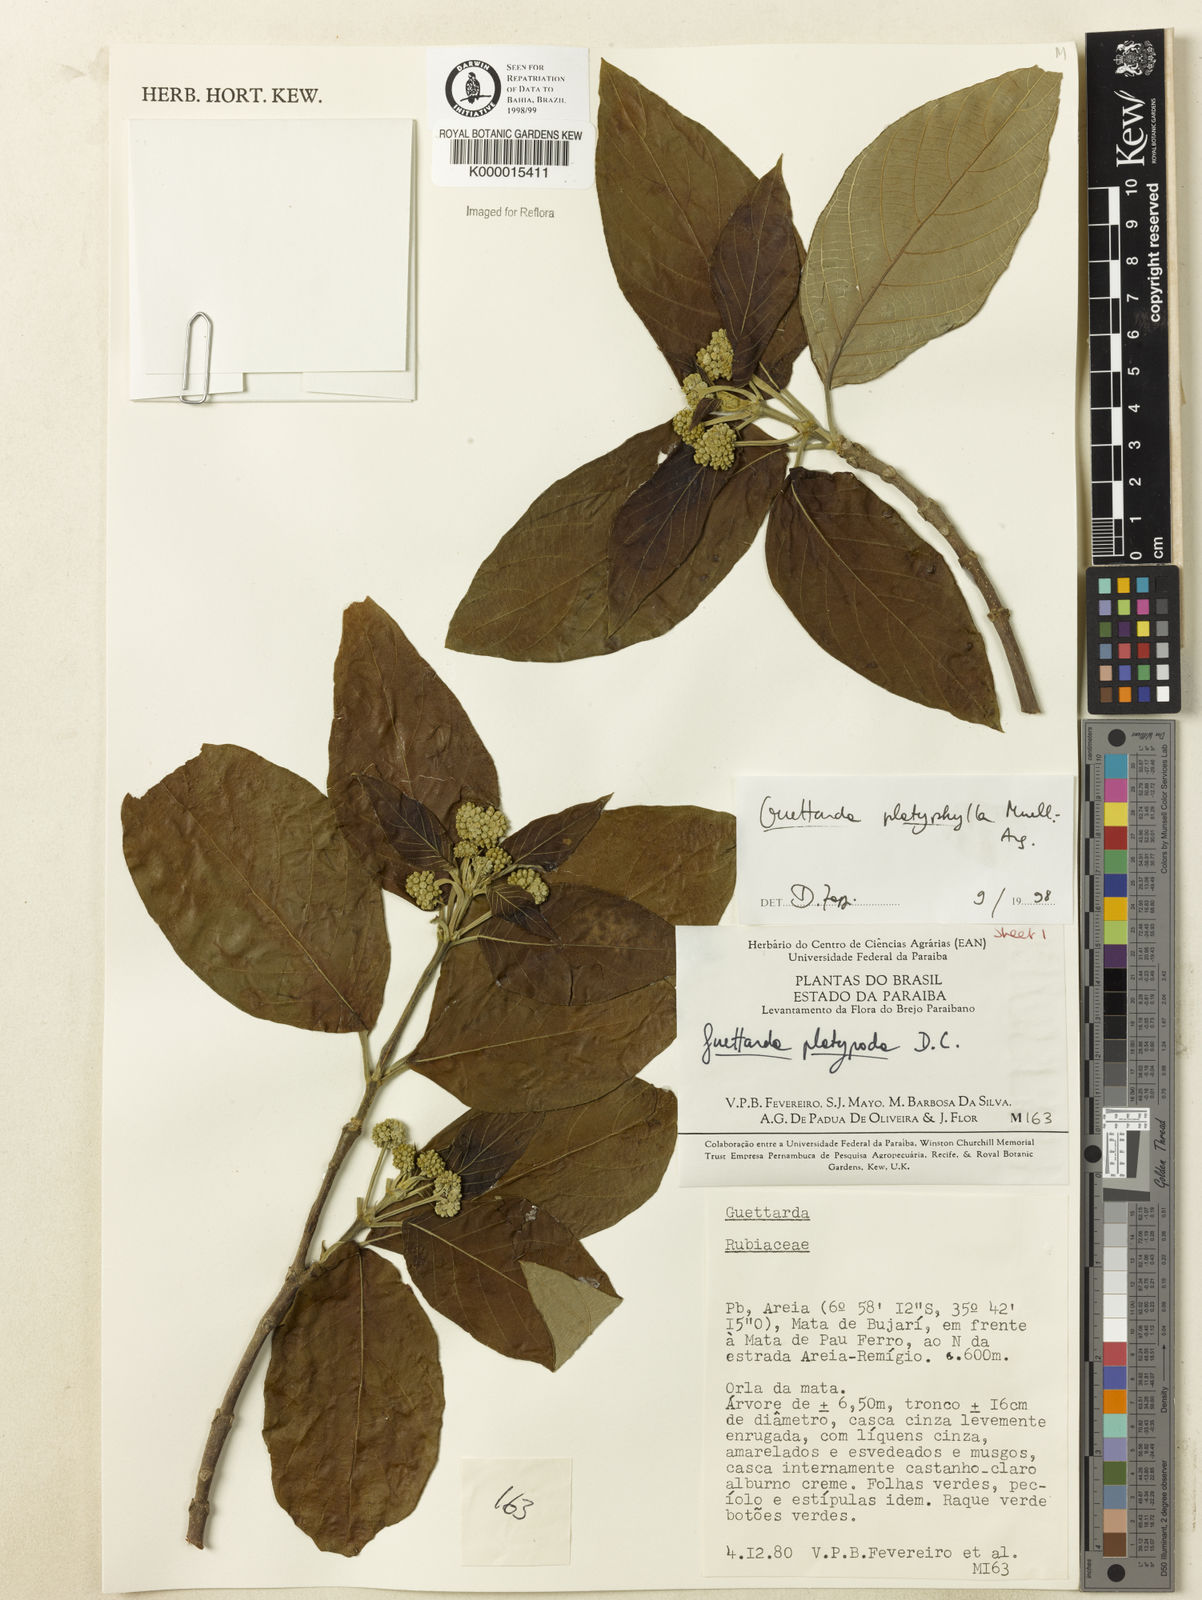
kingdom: Plantae
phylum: Tracheophyta
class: Magnoliopsida
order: Gentianales
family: Rubiaceae
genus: Guettarda
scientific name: Guettarda viburnoides
